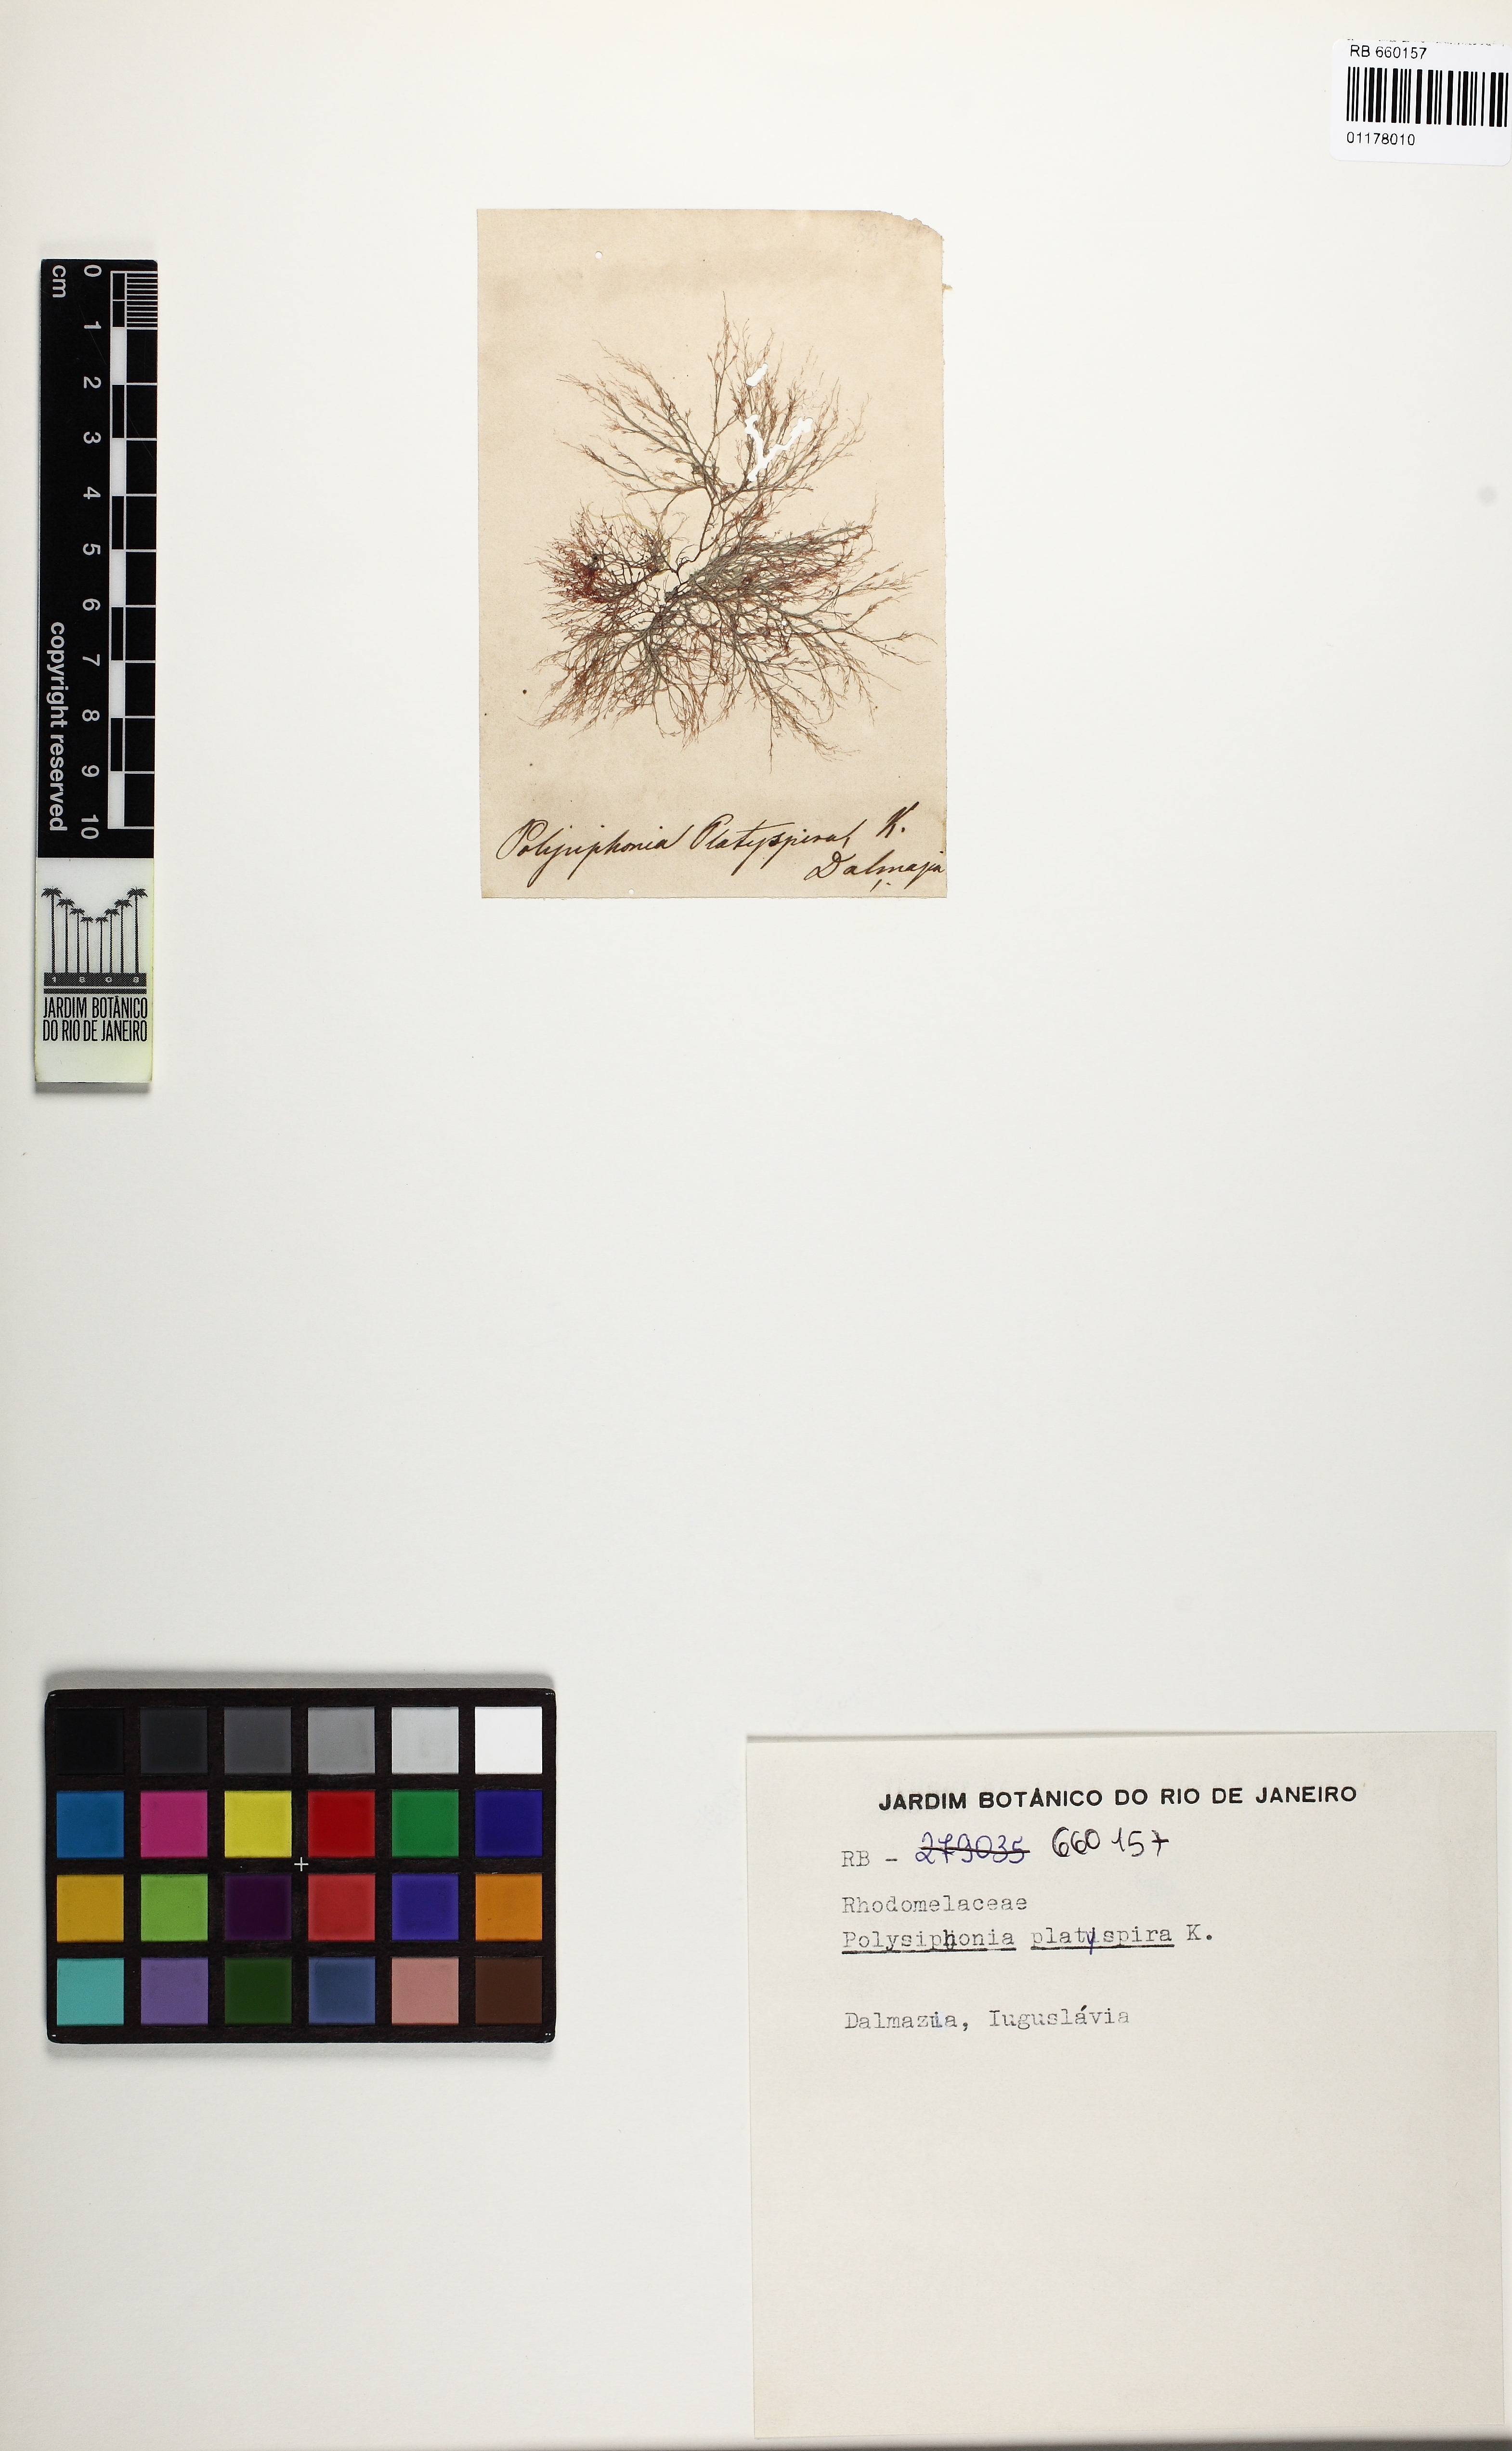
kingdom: Plantae
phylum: Rhodophyta
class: Florideophyceae
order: Ceramiales
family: Rhodomelaceae
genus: Polysiphonia
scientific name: Polysiphonia
